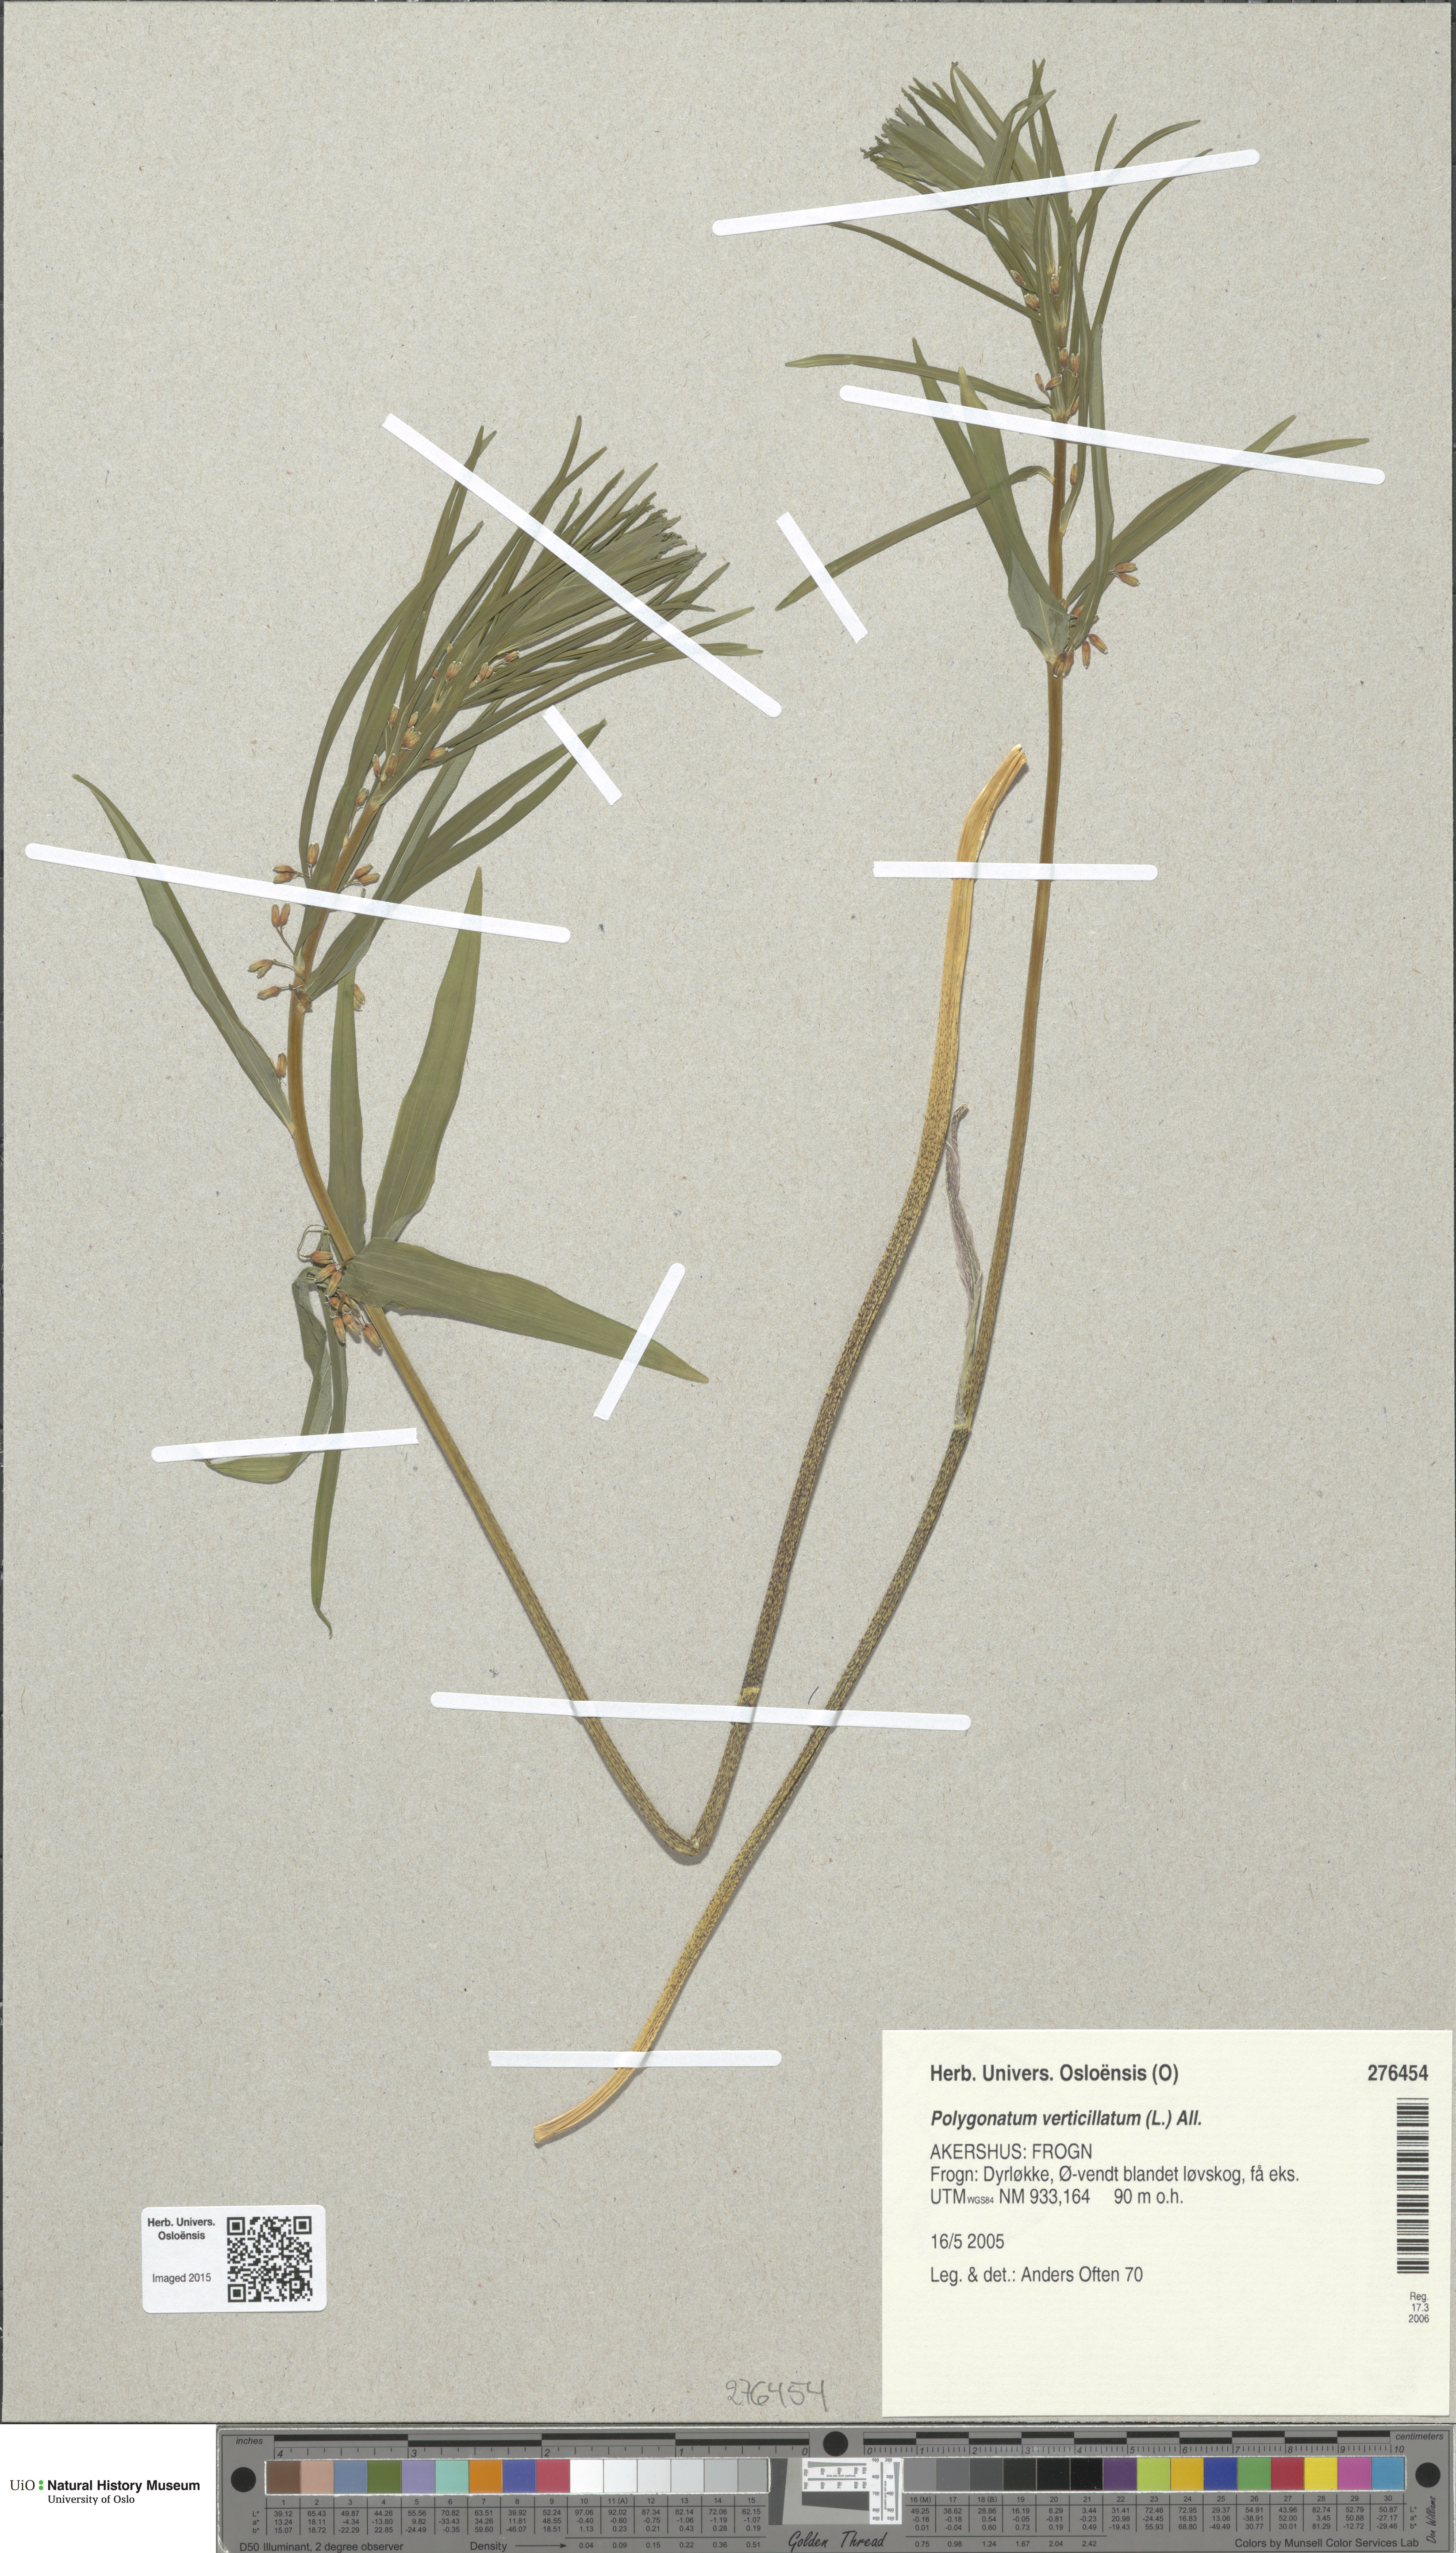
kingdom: Plantae
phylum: Tracheophyta
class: Liliopsida
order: Asparagales
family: Asparagaceae
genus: Polygonatum
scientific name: Polygonatum verticillatum
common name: Whorled solomon's-seal
